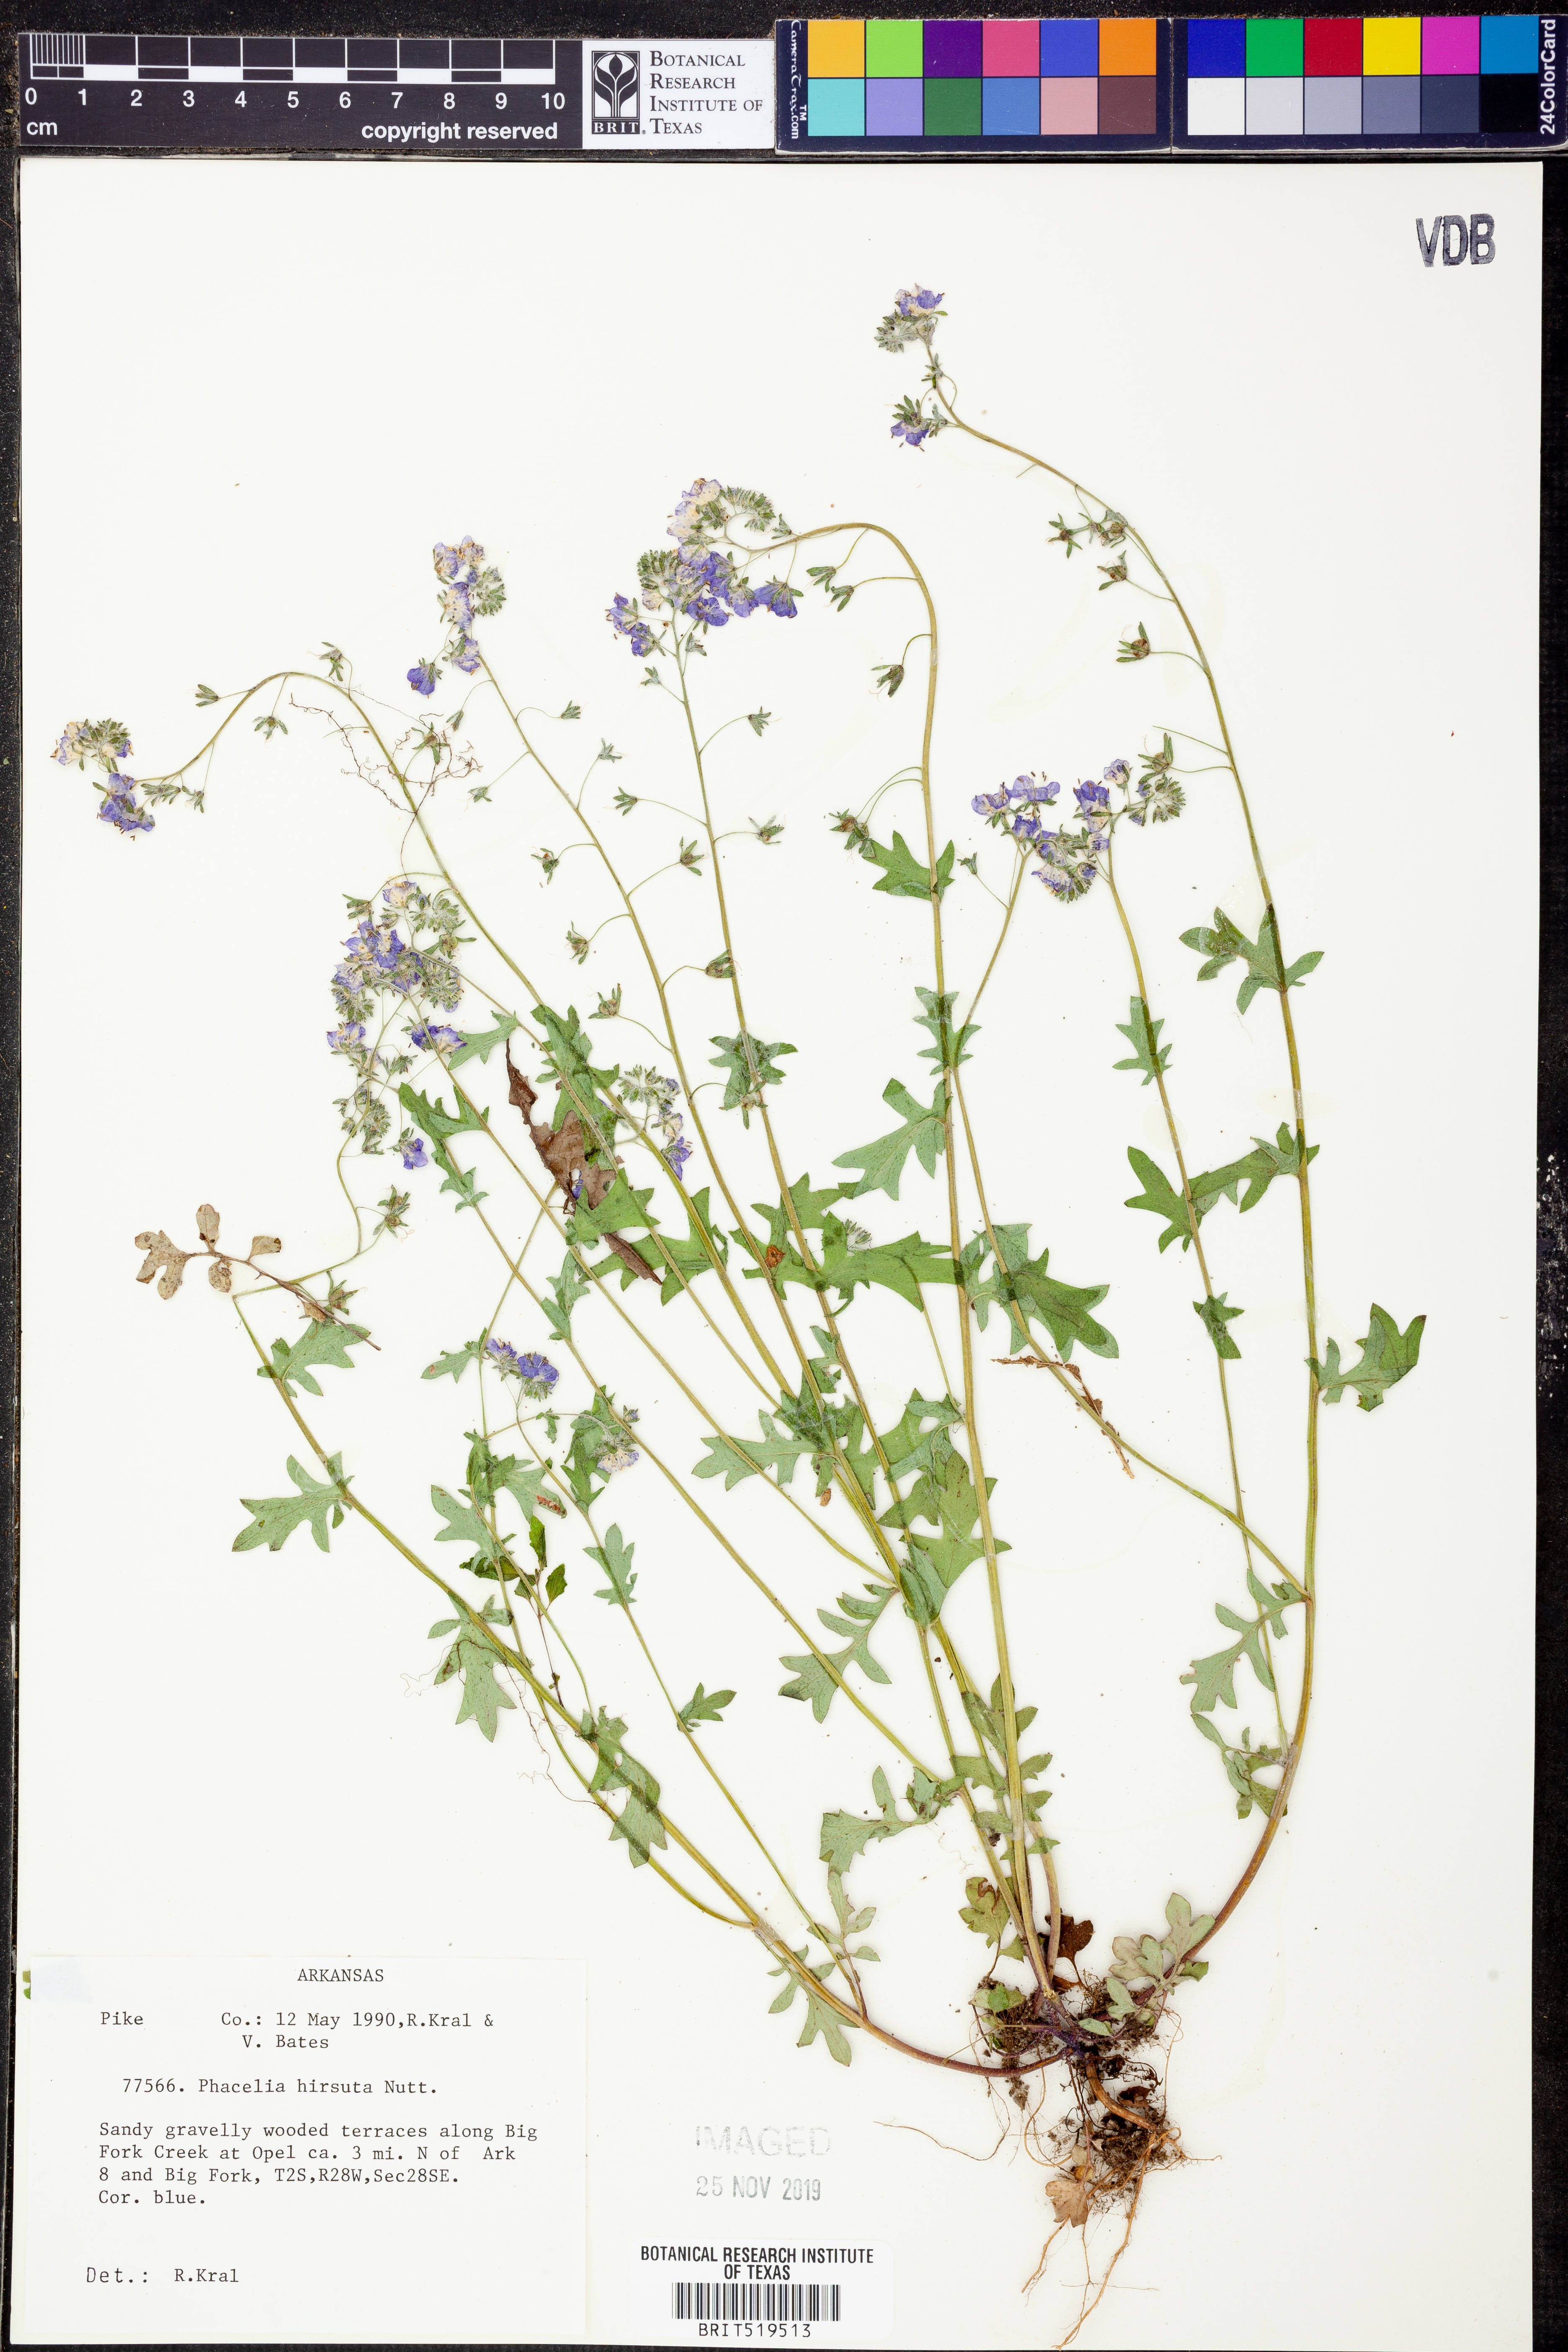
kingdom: Plantae
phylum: Tracheophyta
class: Magnoliopsida
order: Boraginales
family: Hydrophyllaceae
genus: Phacelia
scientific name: Phacelia hirsuta
